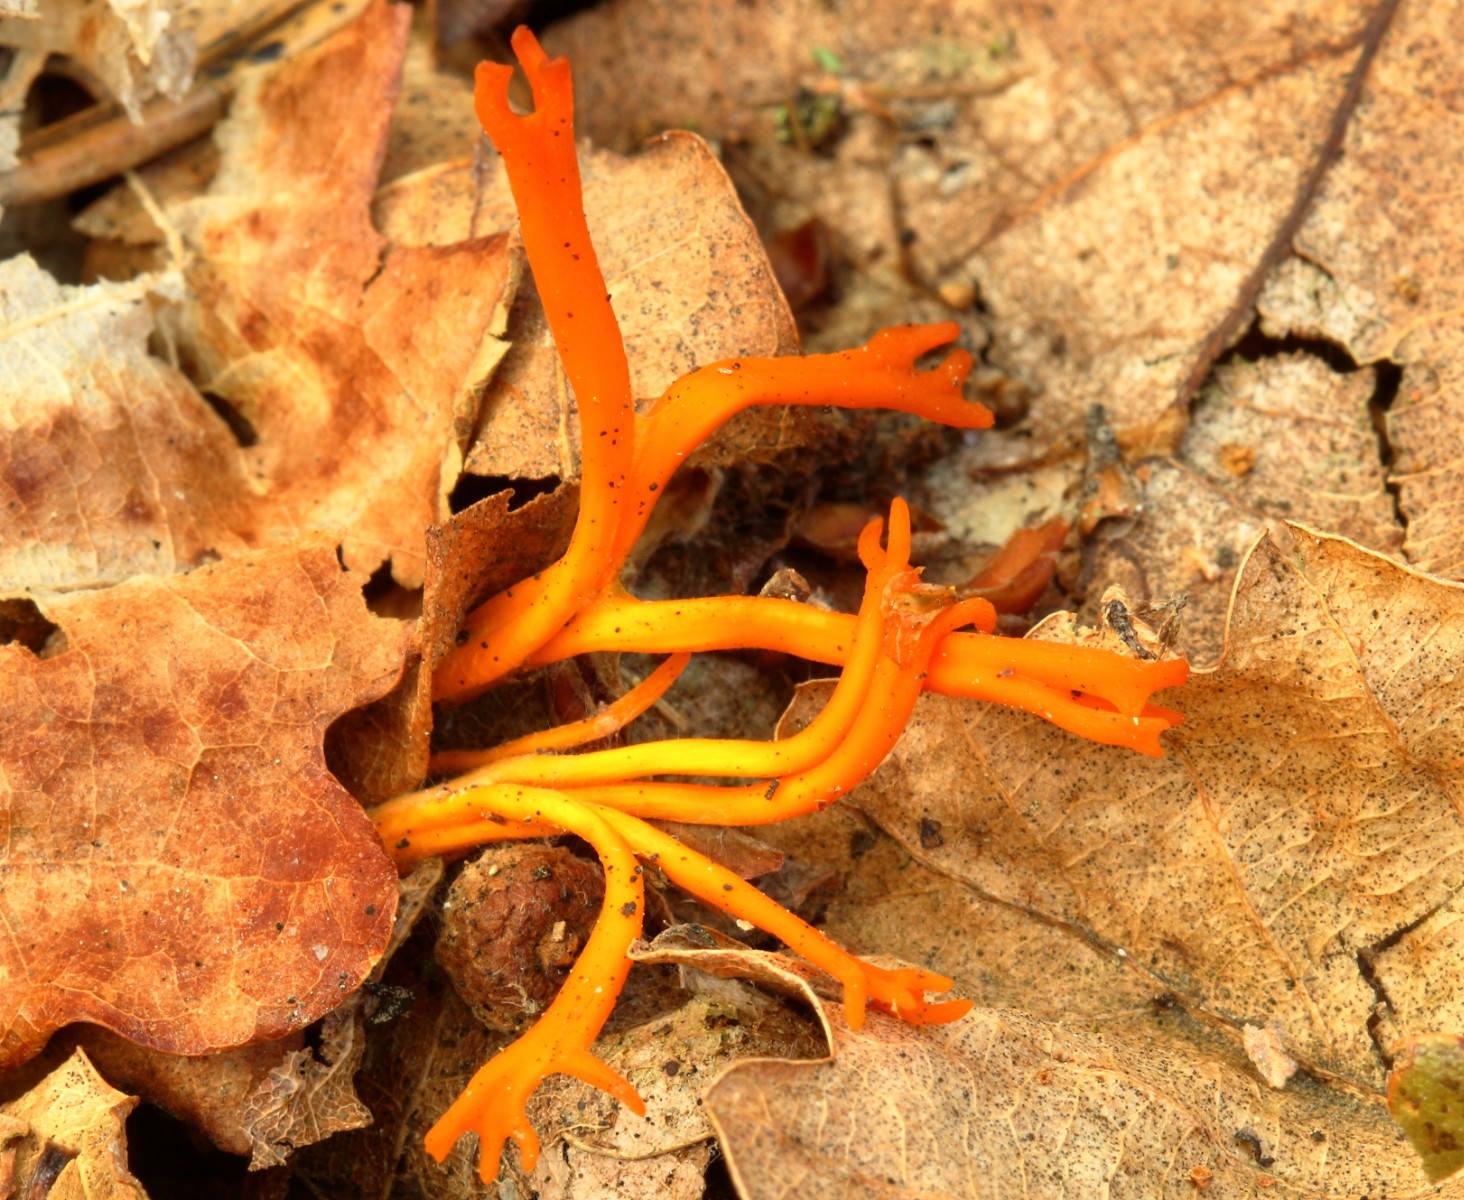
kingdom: Fungi
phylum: Basidiomycota
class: Dacrymycetes
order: Dacrymycetales
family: Dacrymycetaceae
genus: Calocera
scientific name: Calocera viscosa
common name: almindelig guldgaffel
